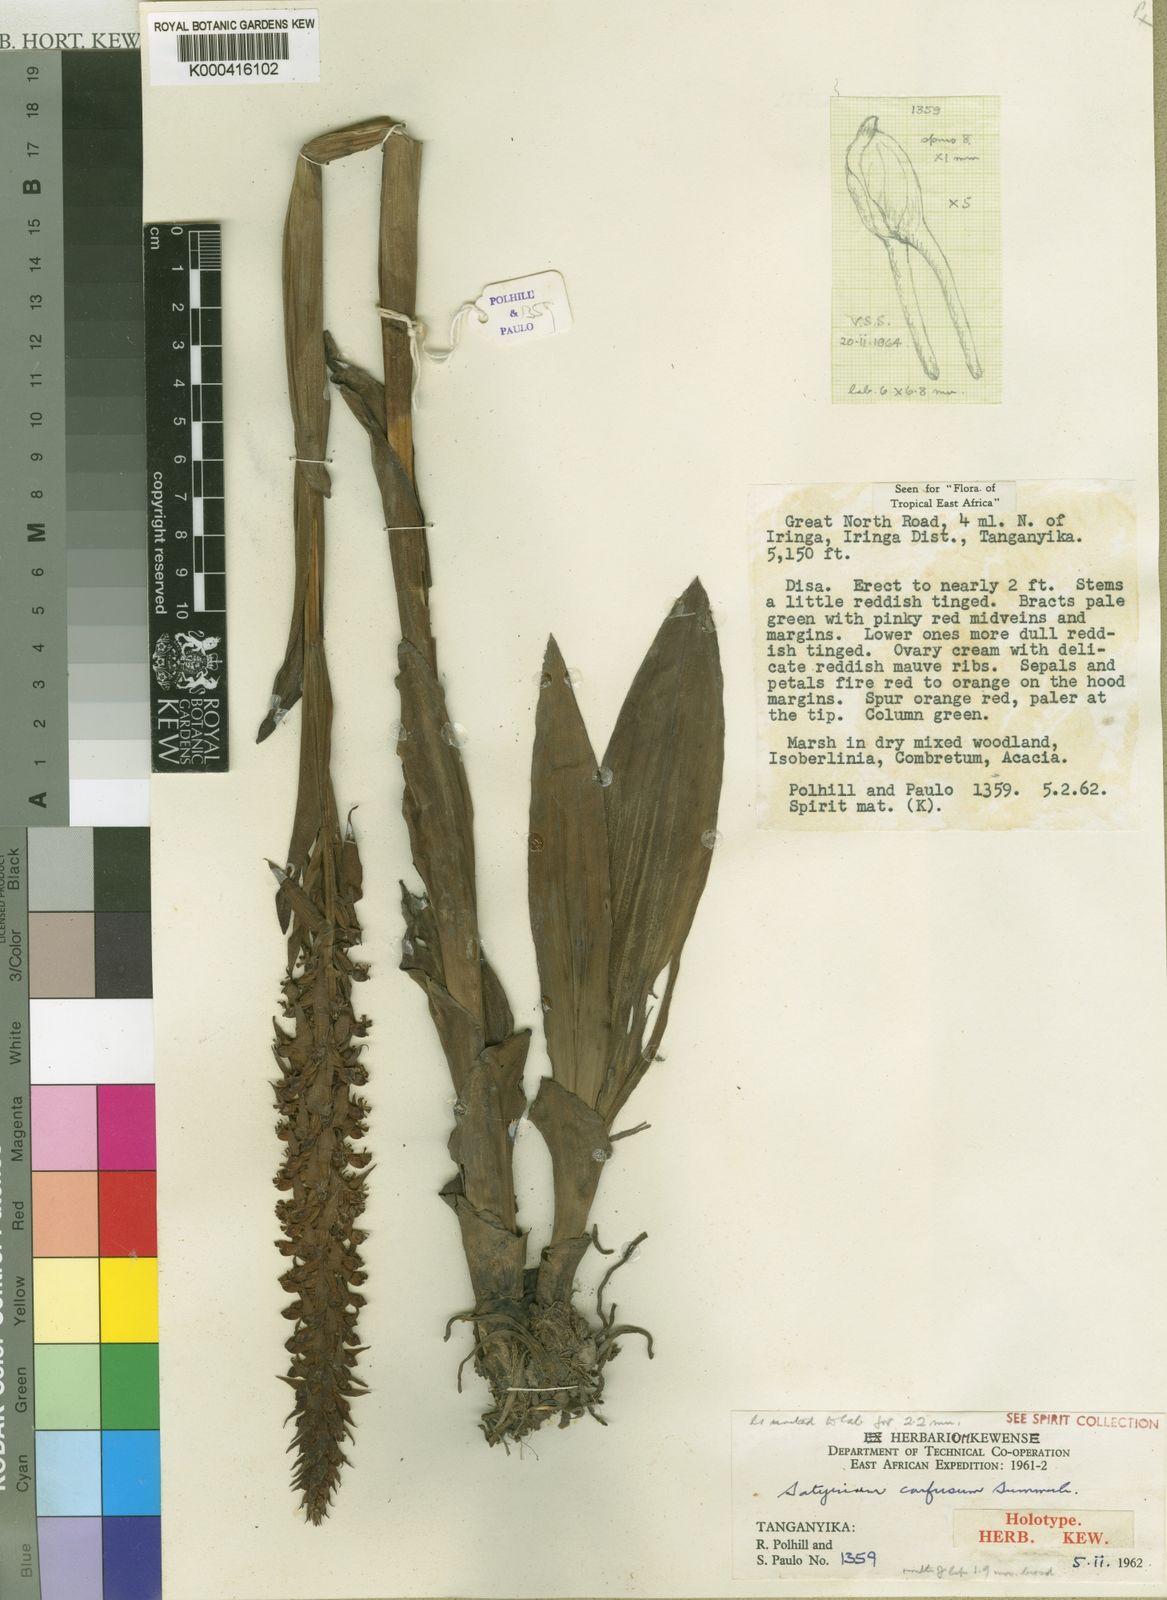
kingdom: Plantae
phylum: Tracheophyta
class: Liliopsida
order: Asparagales
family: Orchidaceae
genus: Satyrium
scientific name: Satyrium confusum
